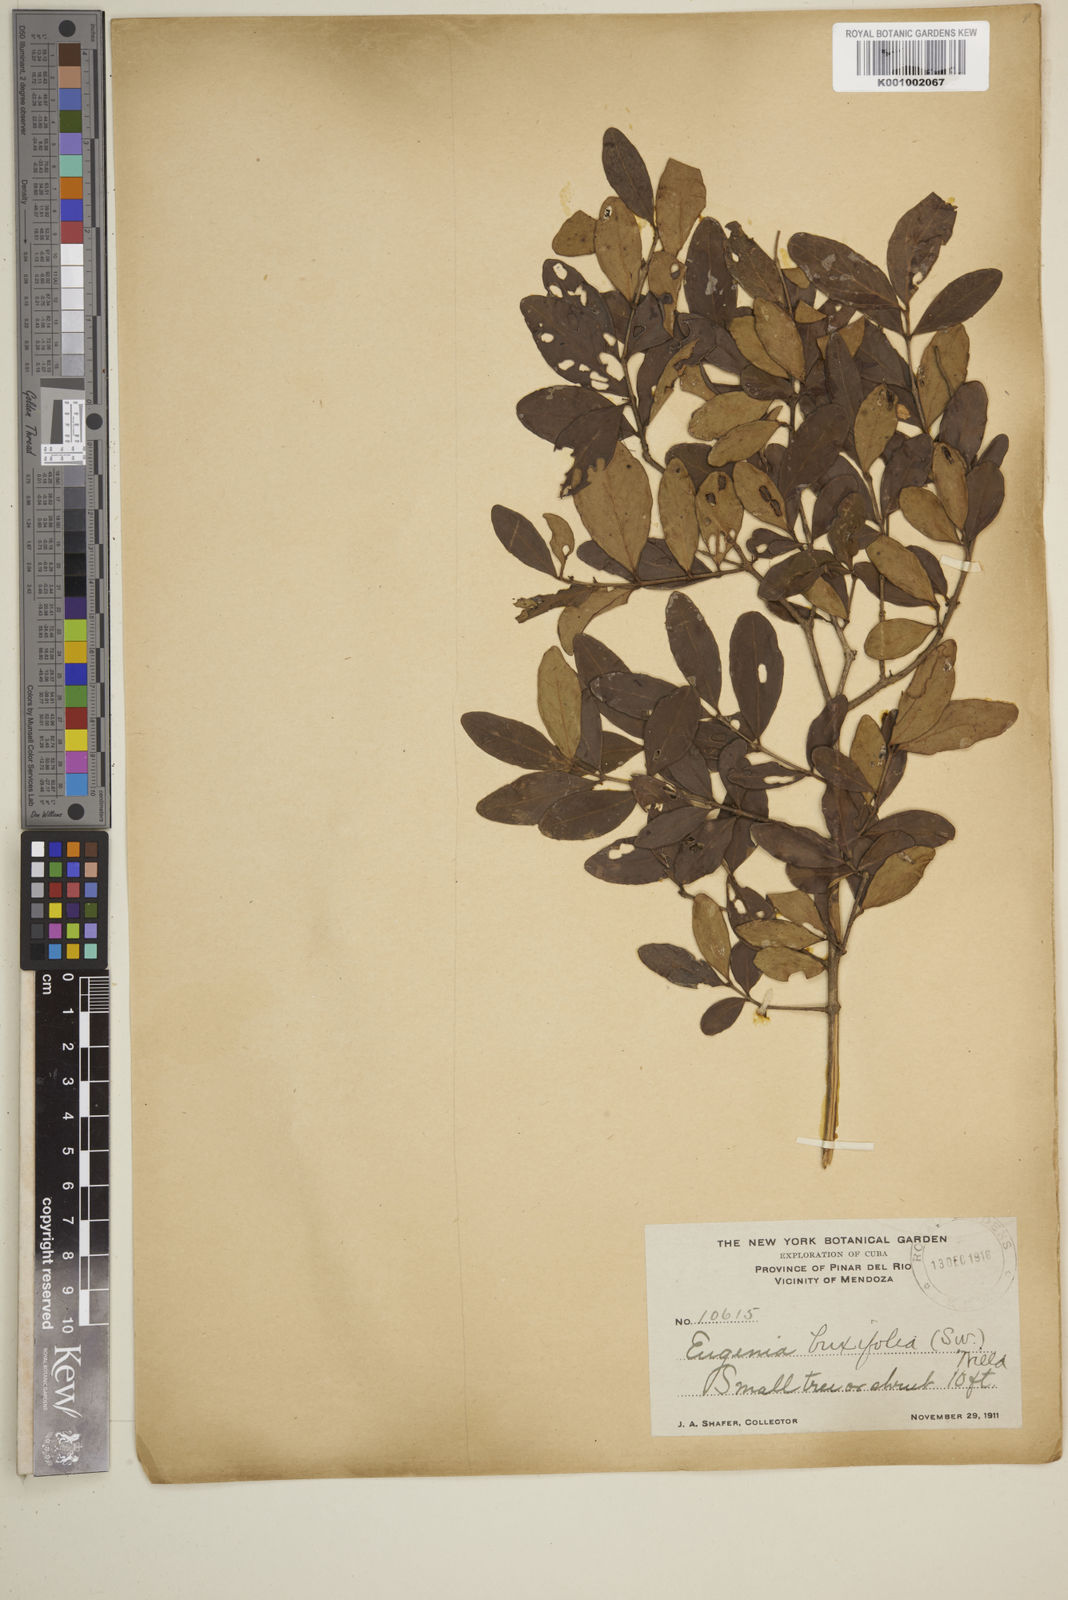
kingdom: Plantae
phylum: Tracheophyta
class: Magnoliopsida
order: Myrtales
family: Myrtaceae
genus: Eugenia
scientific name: Eugenia buxifolia
